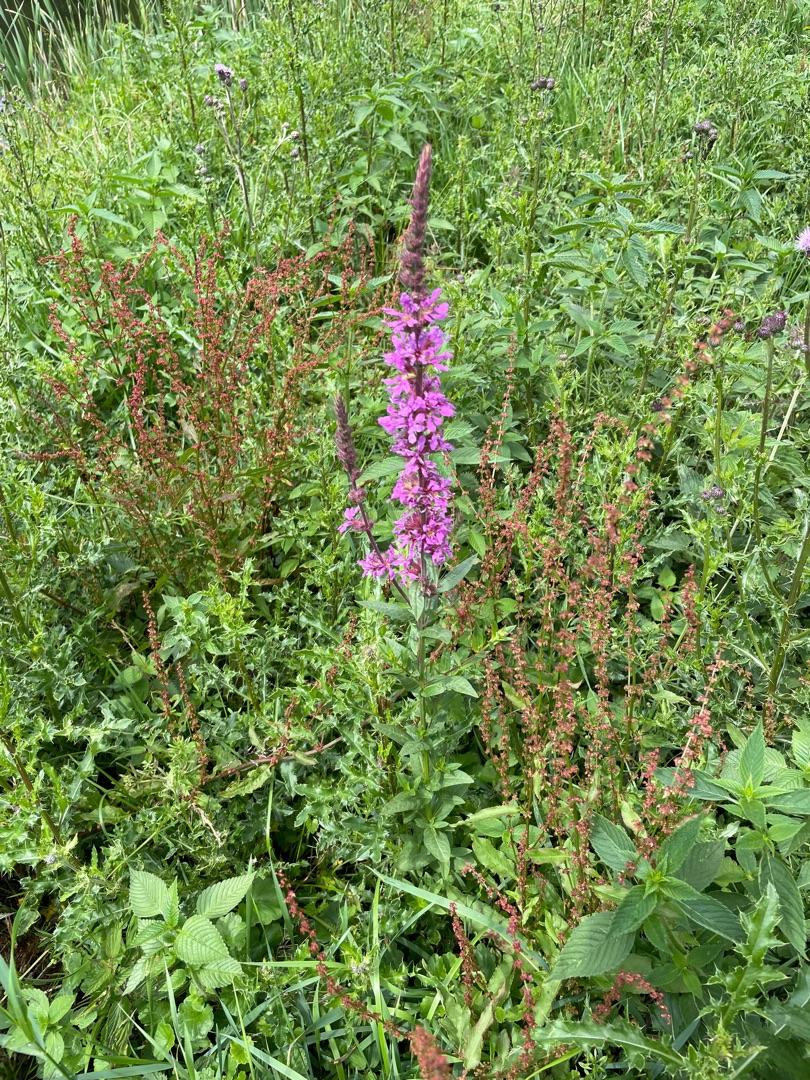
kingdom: Plantae
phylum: Tracheophyta
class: Magnoliopsida
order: Myrtales
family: Lythraceae
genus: Lythrum
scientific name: Lythrum salicaria
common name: Kattehale
